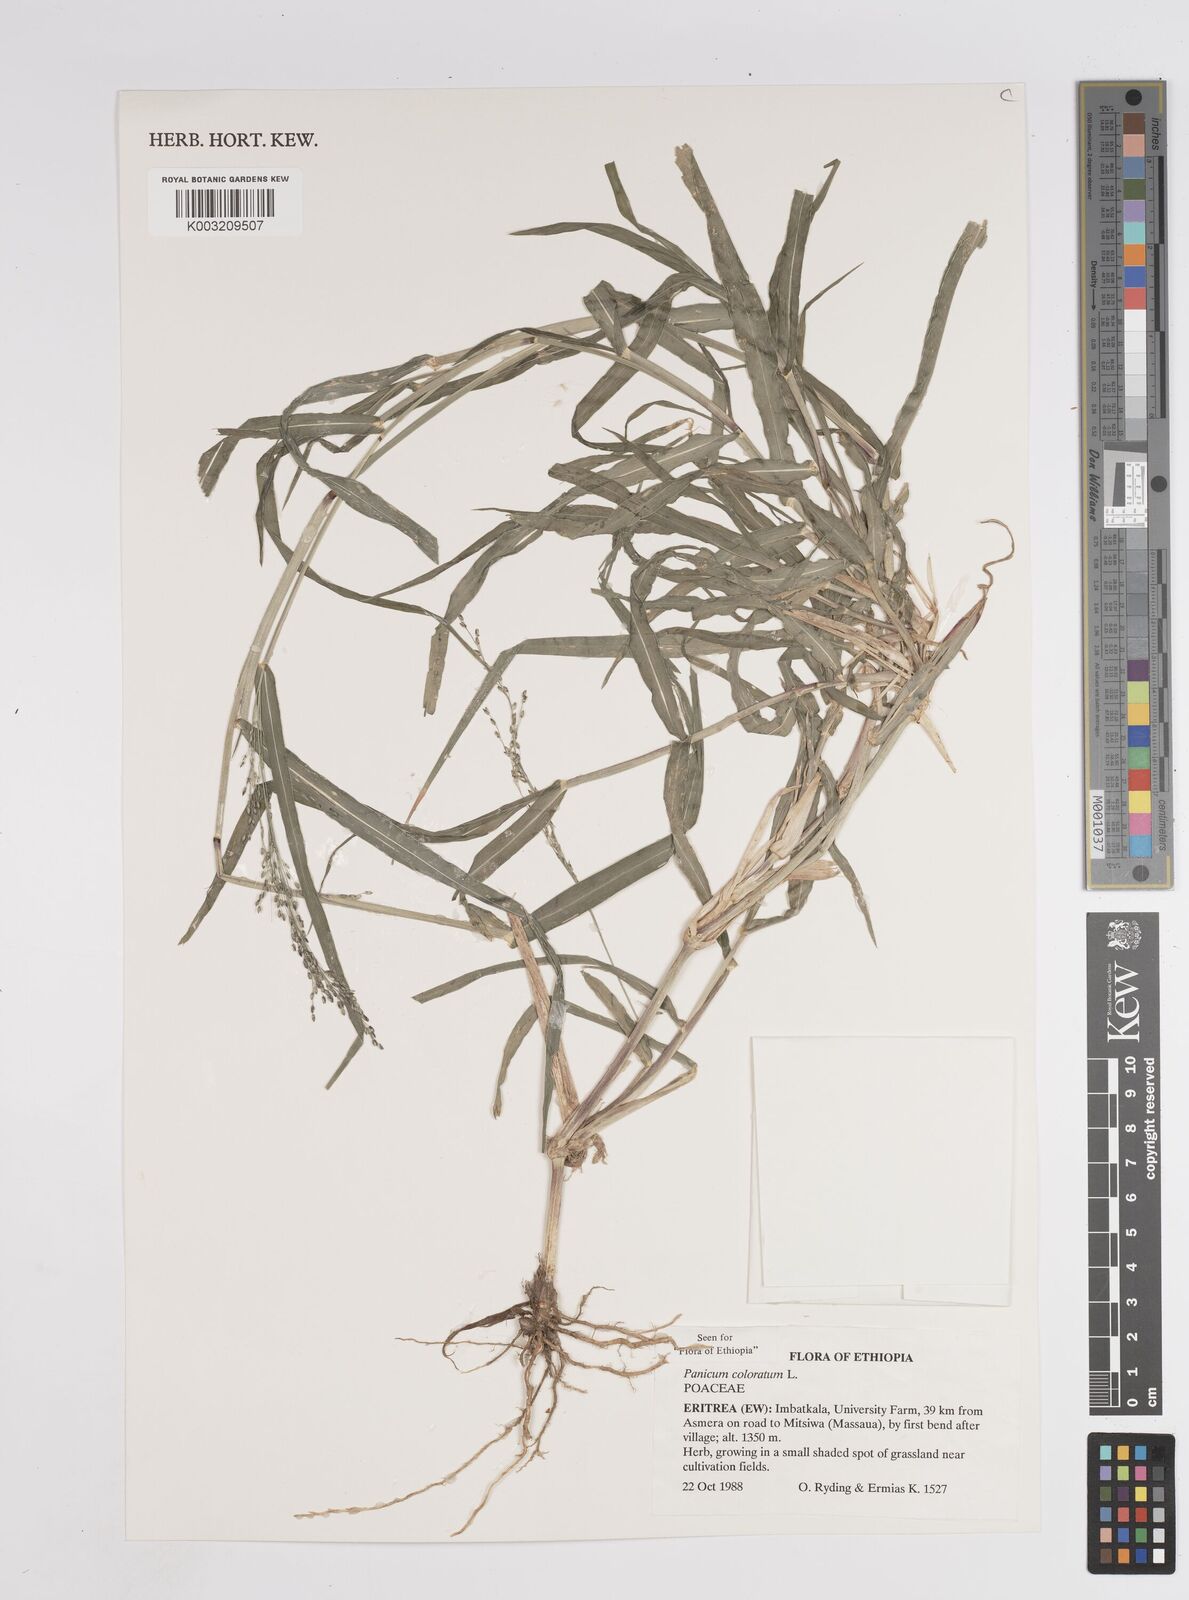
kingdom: Plantae
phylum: Tracheophyta
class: Liliopsida
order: Poales
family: Poaceae
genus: Panicum
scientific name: Panicum coloratum
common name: Kleingrass
